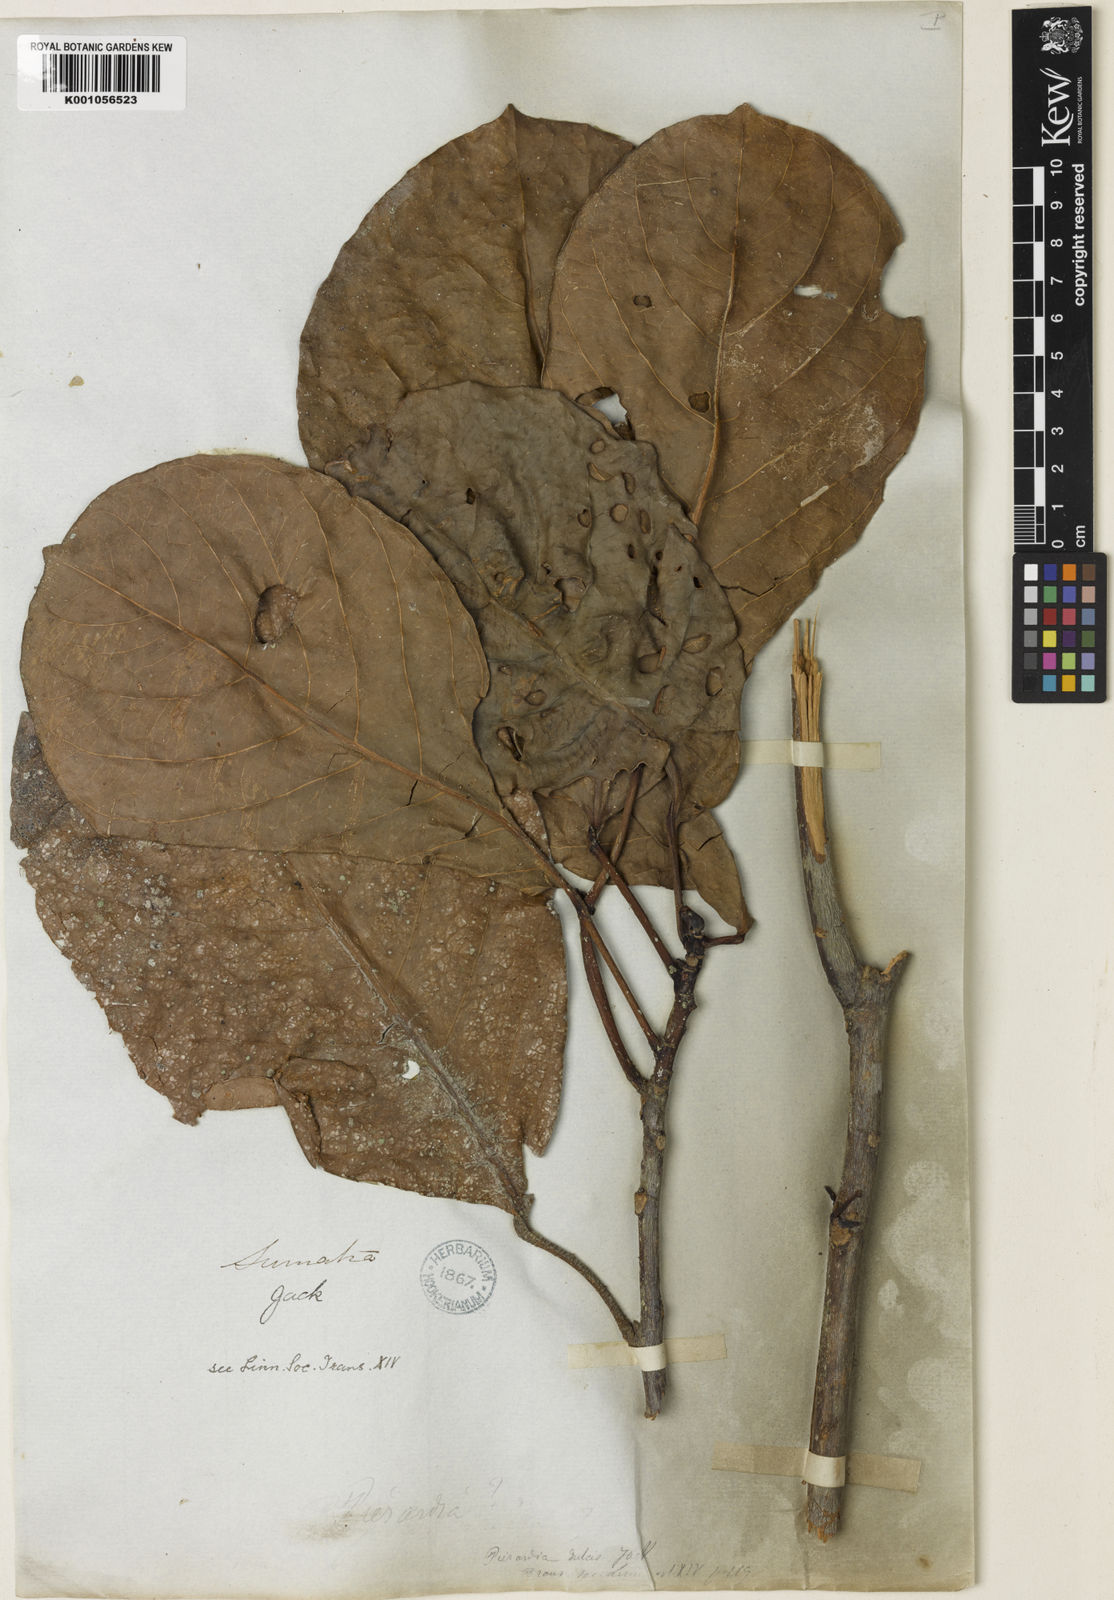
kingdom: Plantae
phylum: Tracheophyta
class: Magnoliopsida
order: Malpighiales
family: Phyllanthaceae
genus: Baccaurea
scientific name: Baccaurea
